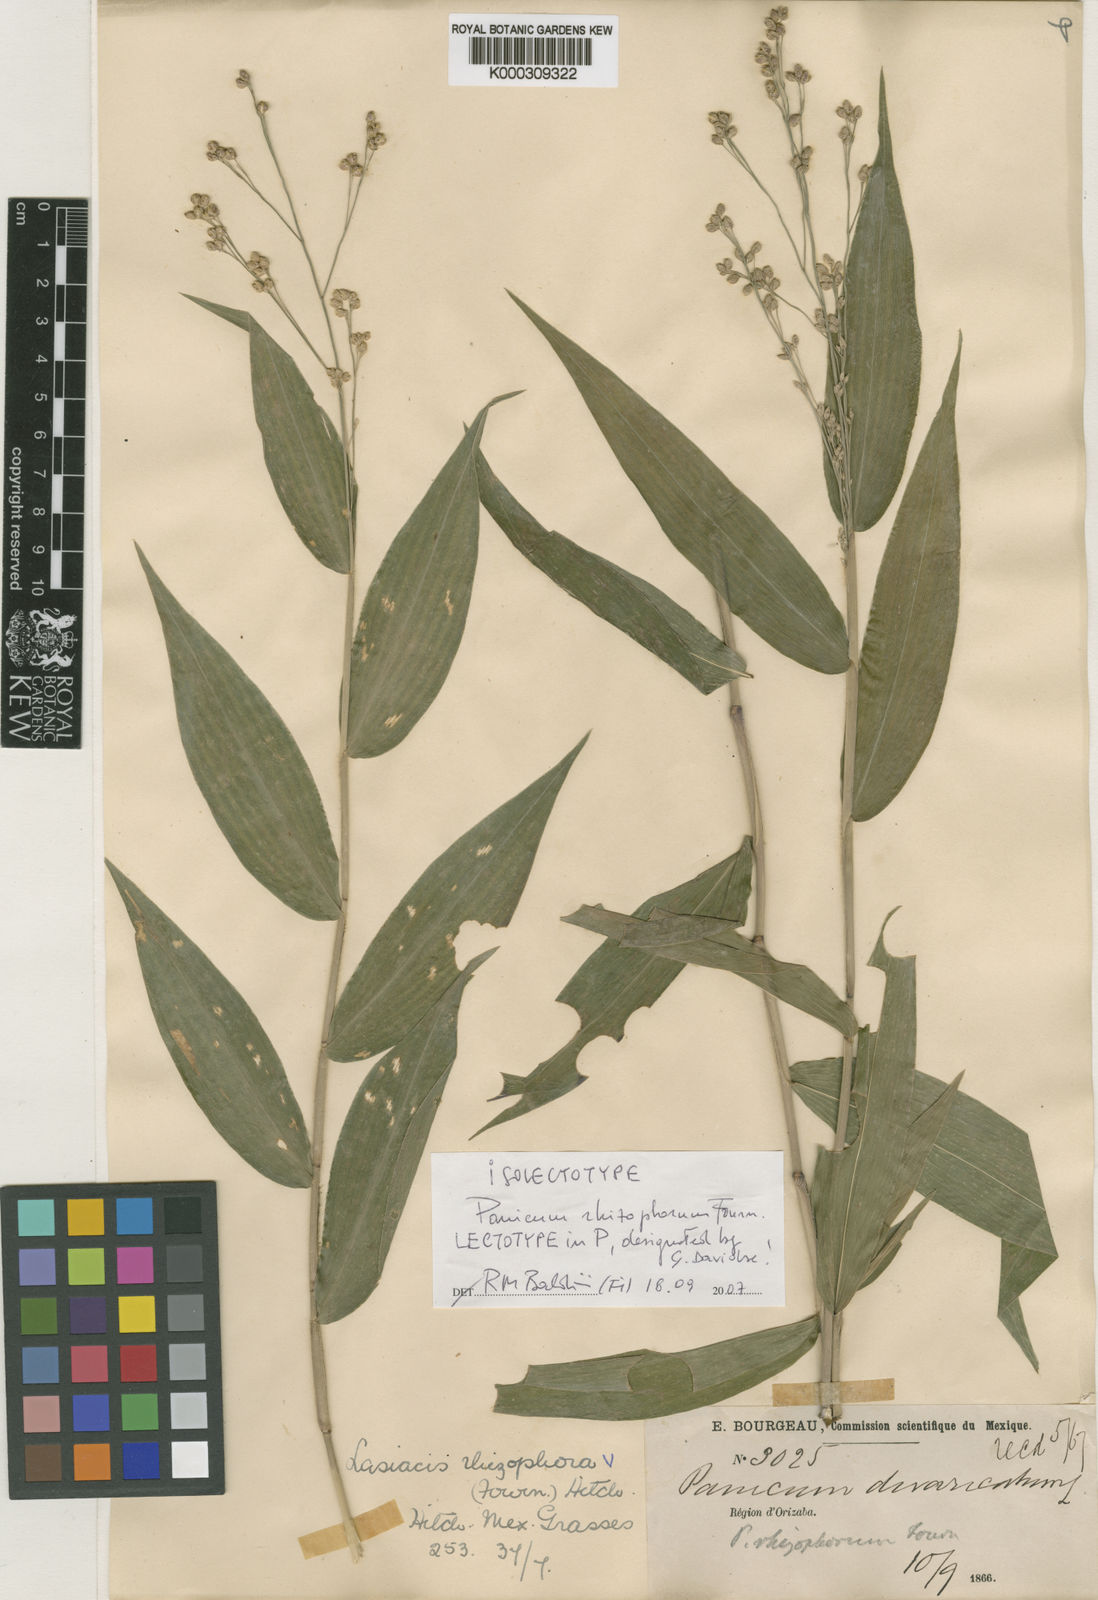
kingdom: Plantae
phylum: Tracheophyta
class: Liliopsida
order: Poales
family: Poaceae
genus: Lasiacis
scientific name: Lasiacis rhizophora
